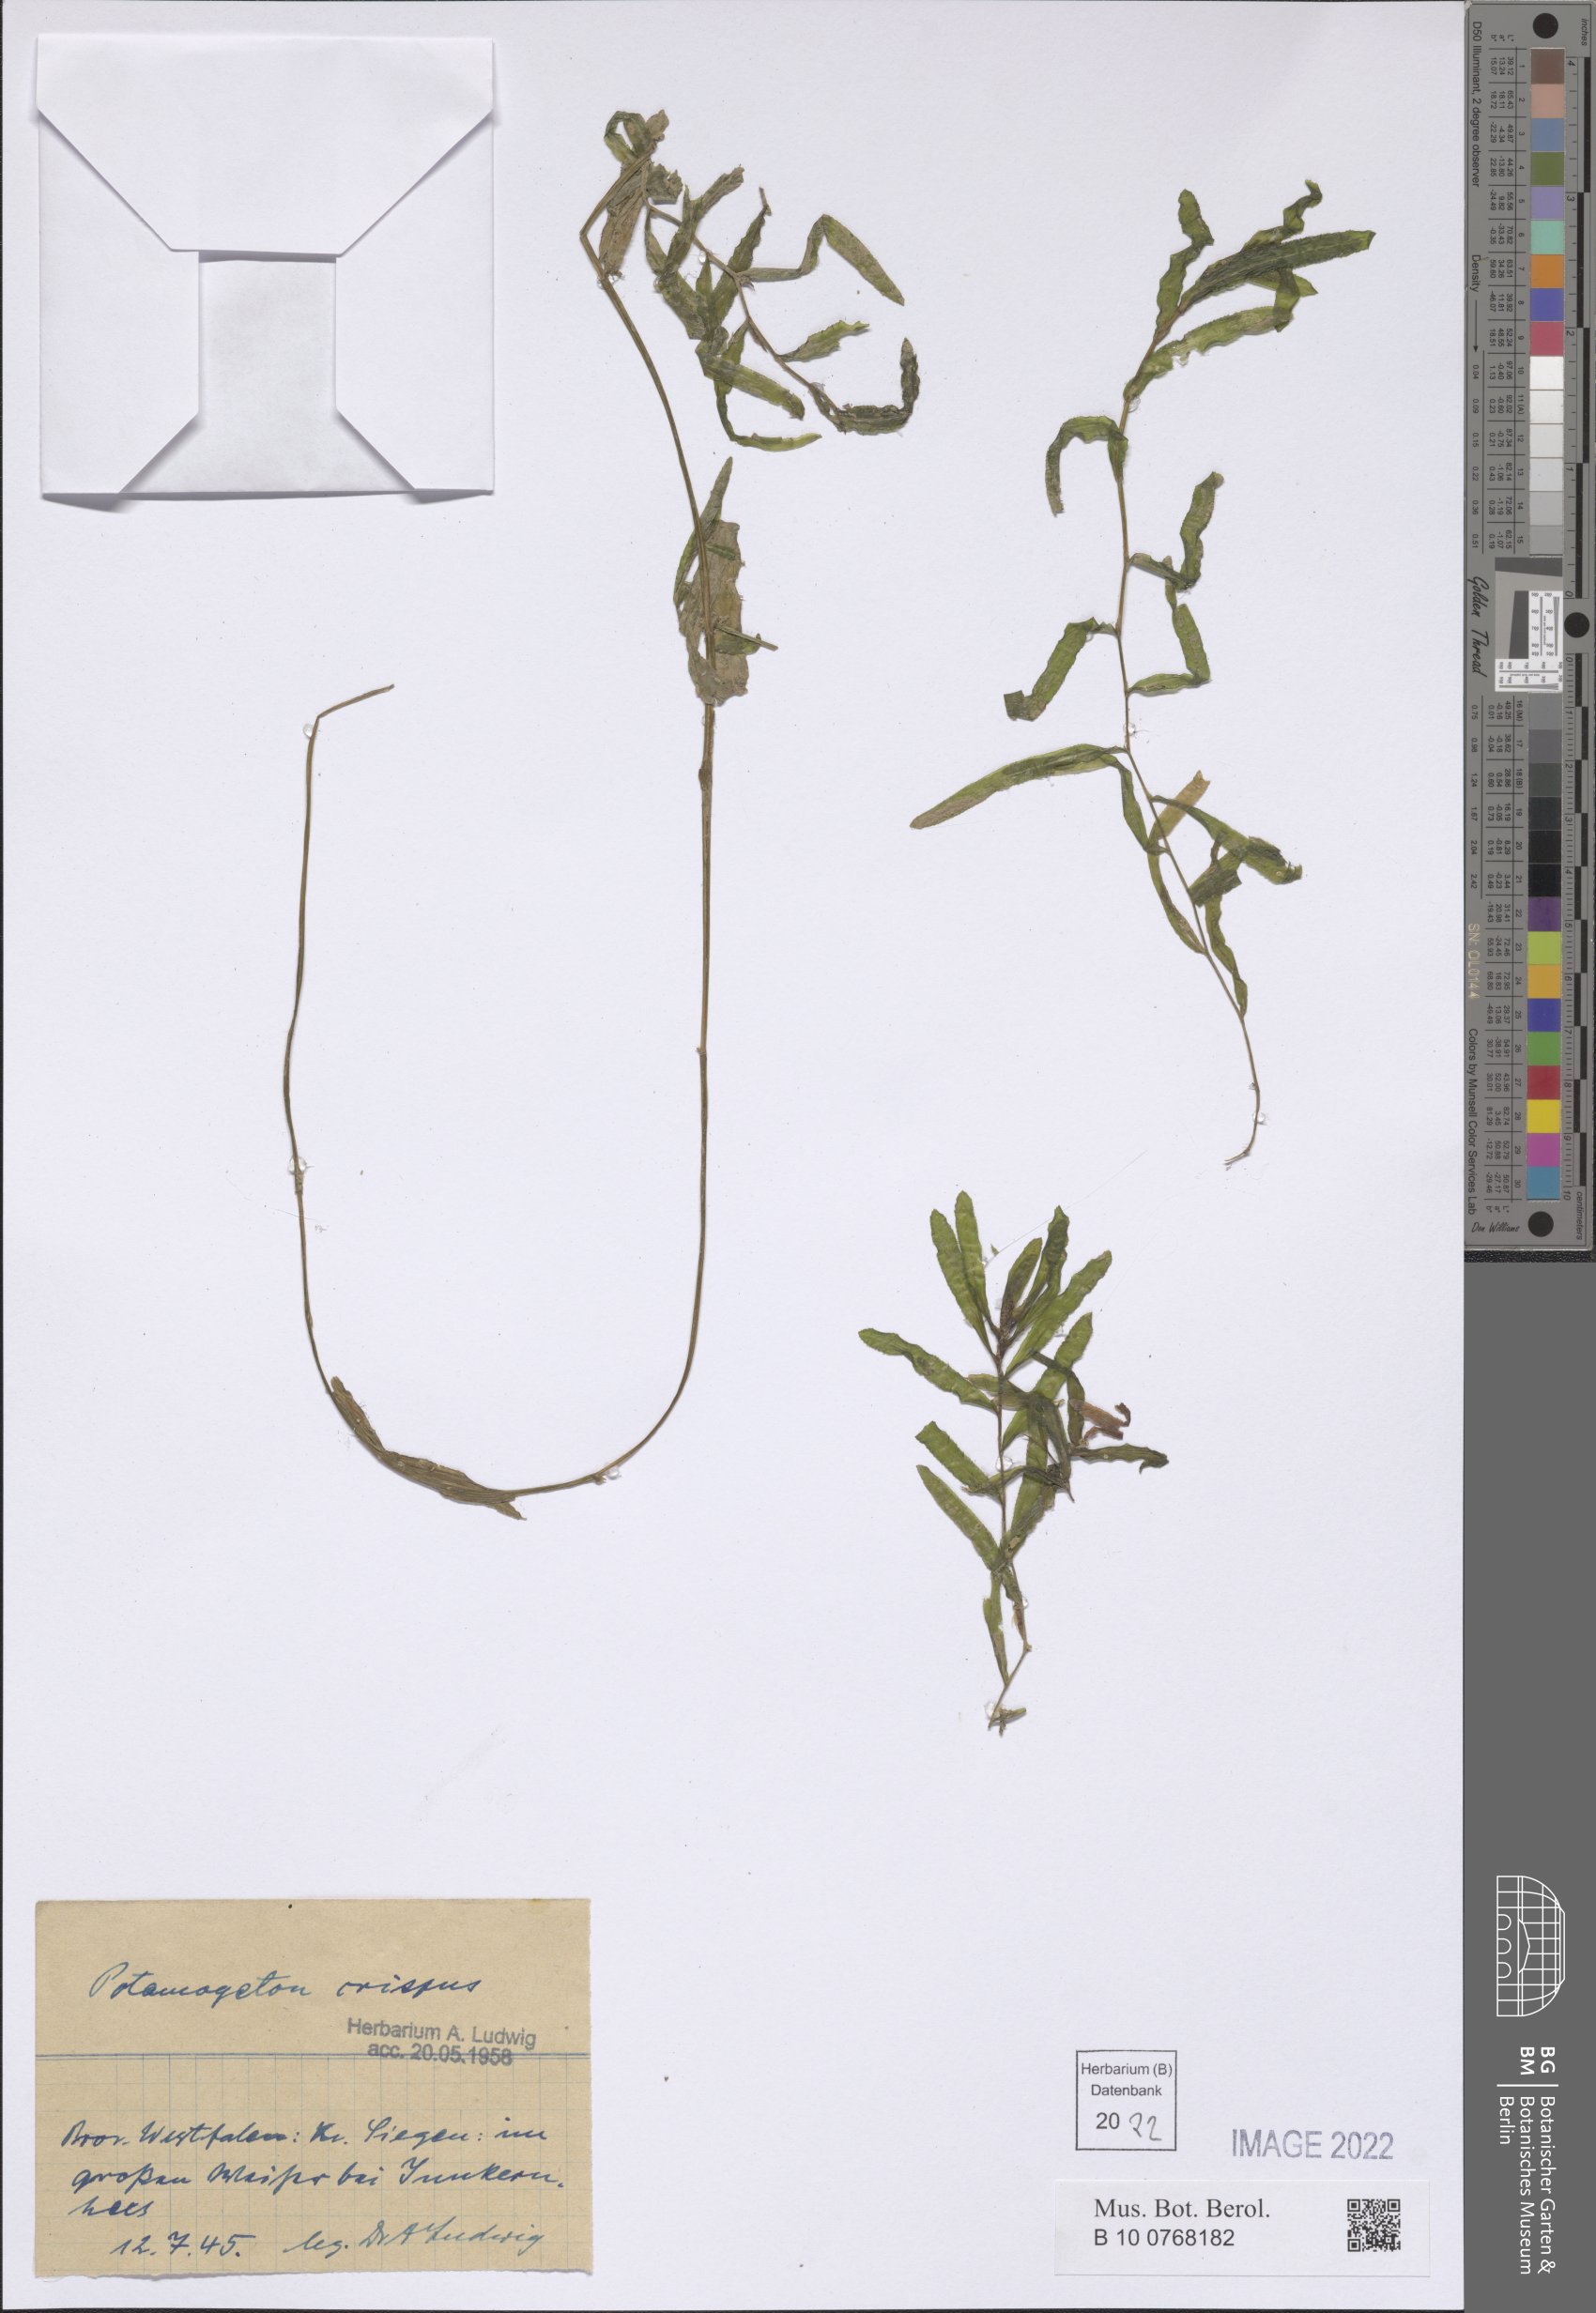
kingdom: Plantae
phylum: Tracheophyta
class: Liliopsida
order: Alismatales
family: Potamogetonaceae
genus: Potamogeton
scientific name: Potamogeton crispus
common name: Curled pondweed
